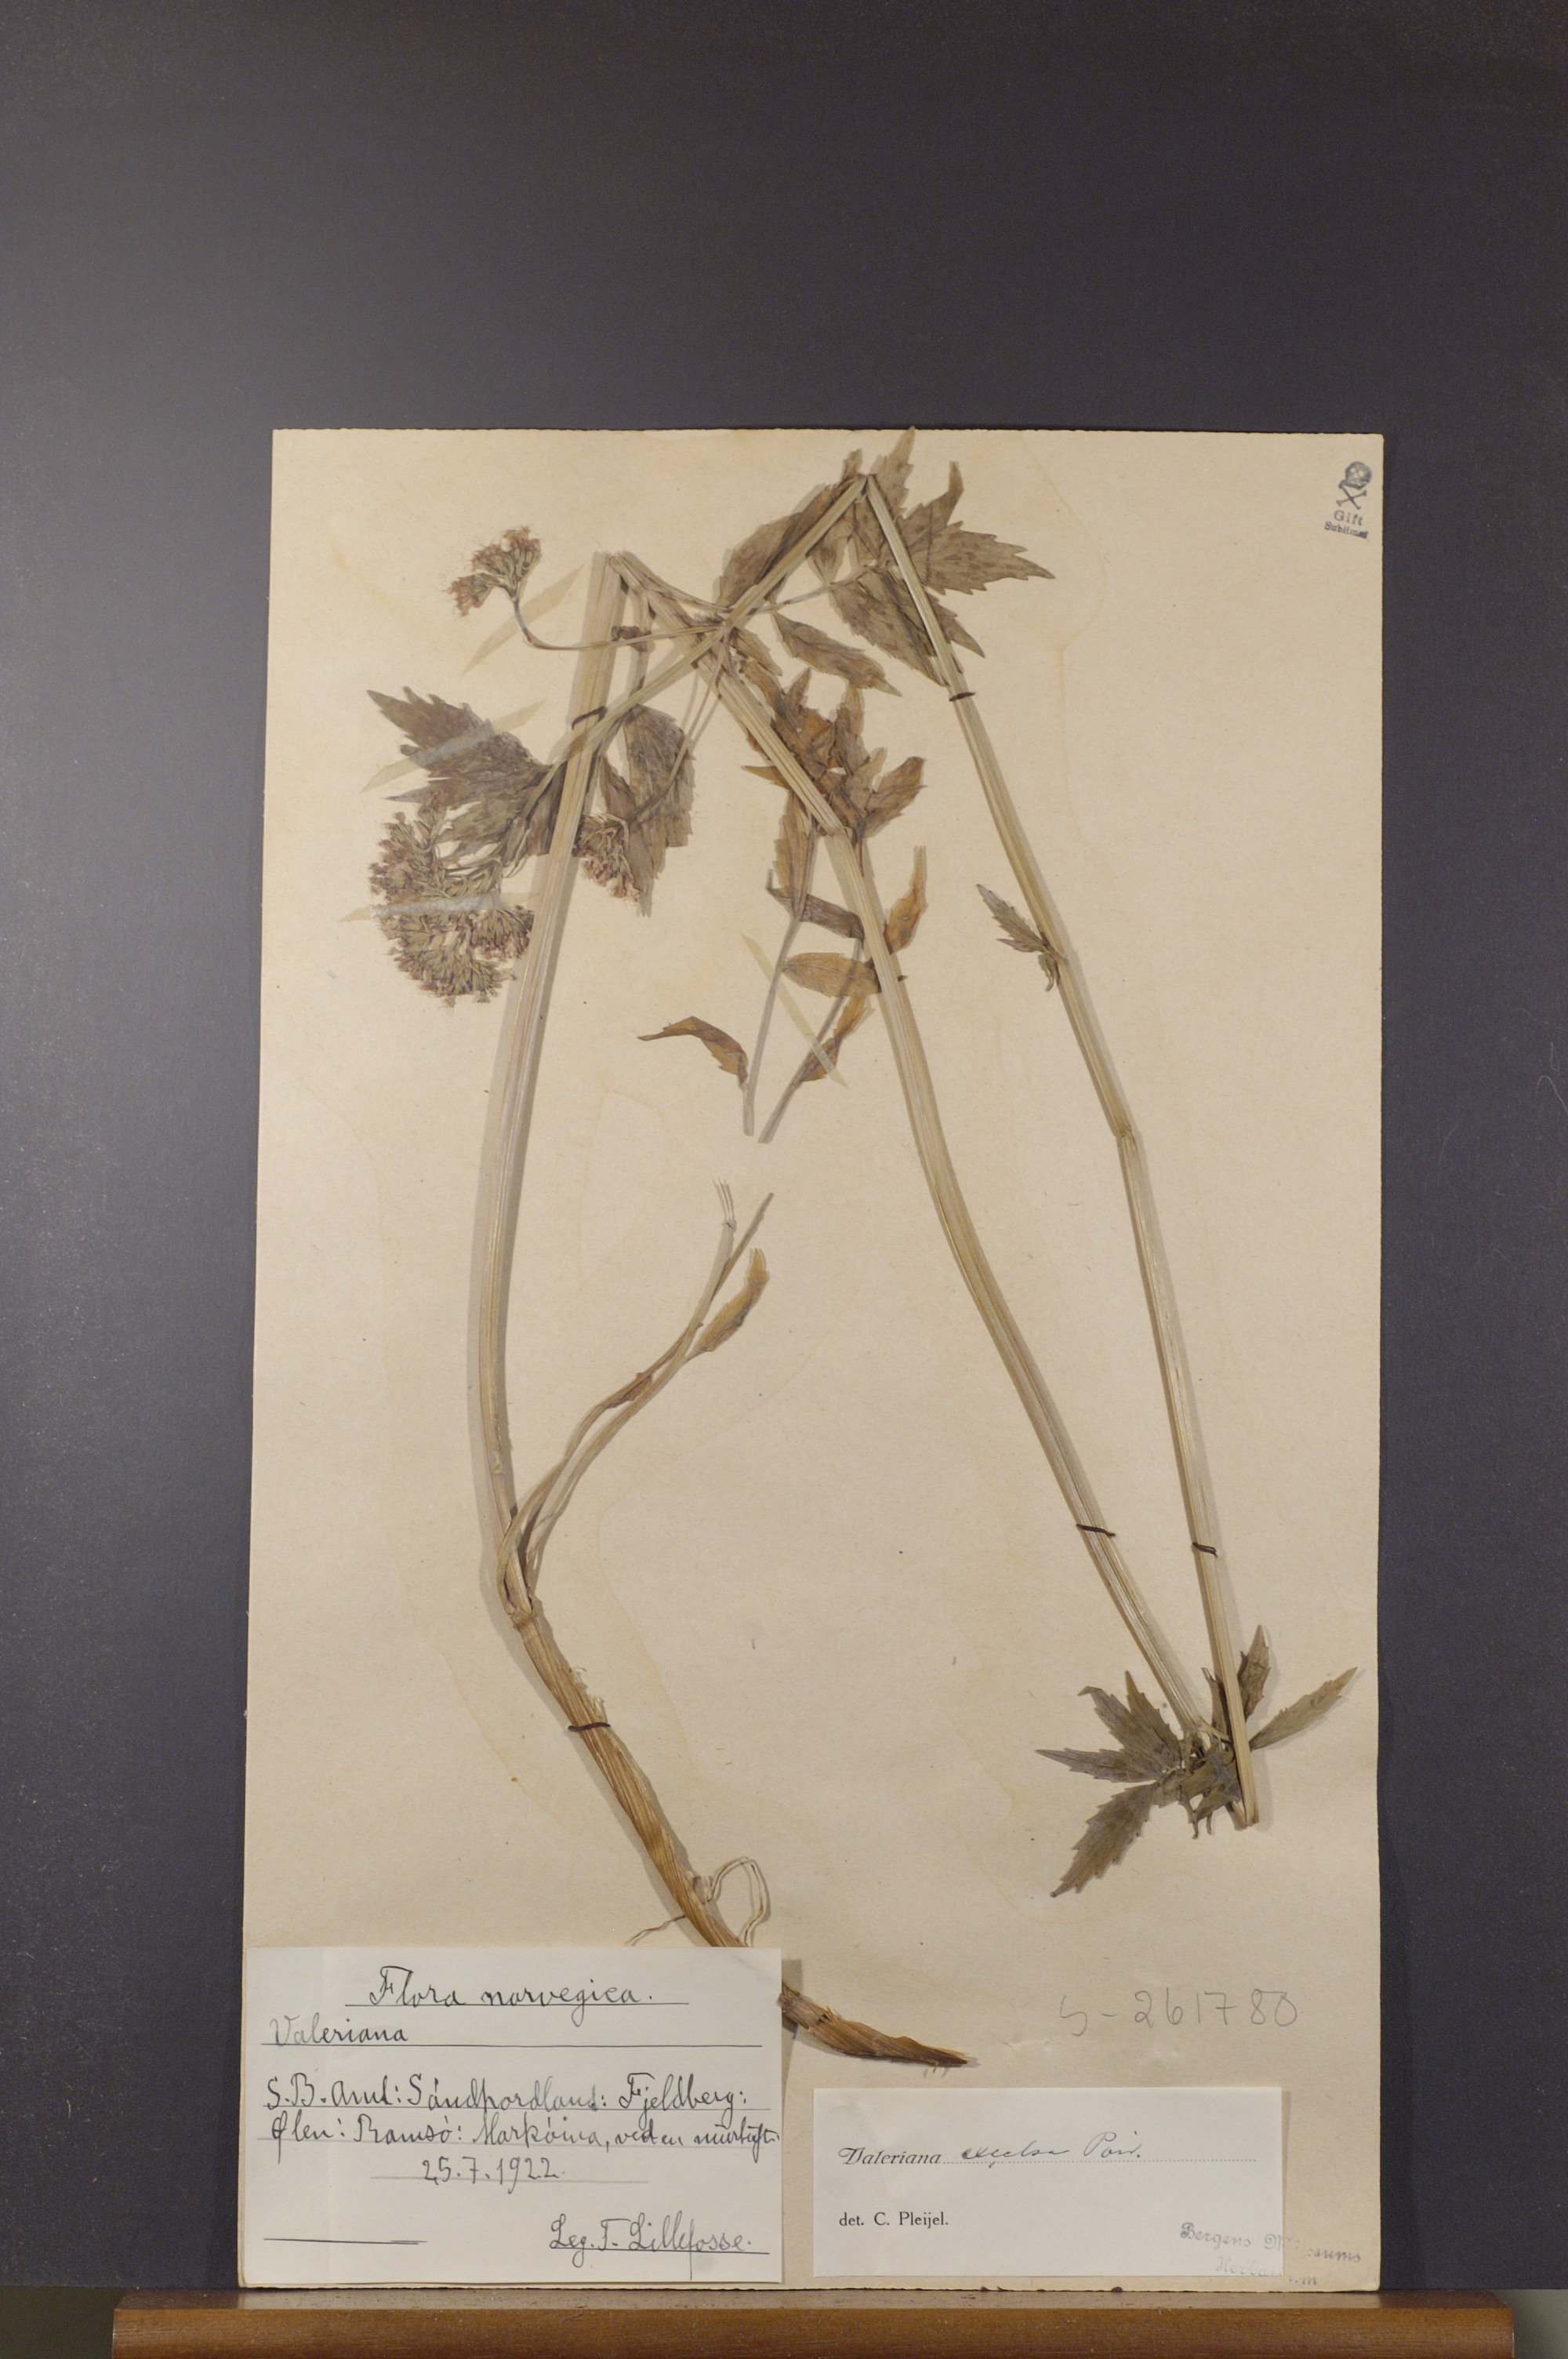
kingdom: Plantae
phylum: Tracheophyta
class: Magnoliopsida
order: Dipsacales
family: Caprifoliaceae
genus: Valeriana
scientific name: Valeriana sambucifolia
